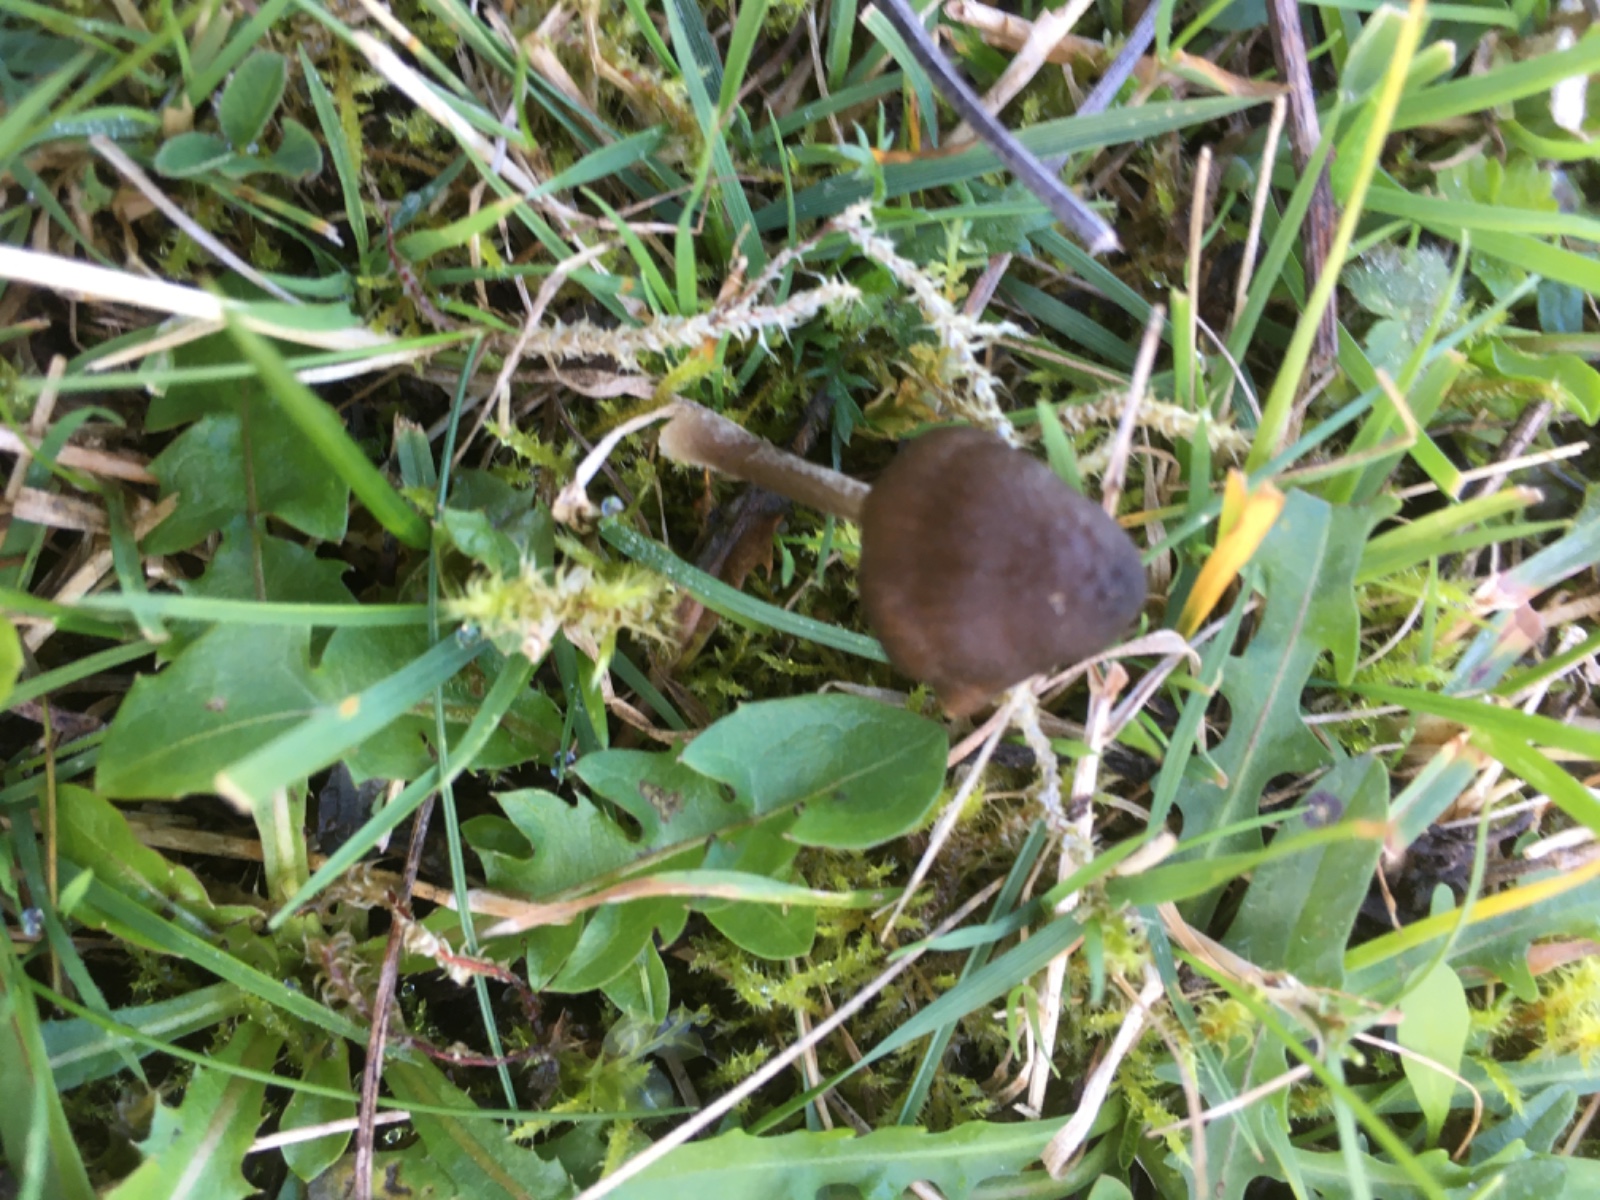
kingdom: Fungi
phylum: Basidiomycota
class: Agaricomycetes
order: Agaricales
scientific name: Agaricales
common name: champignonordenen
